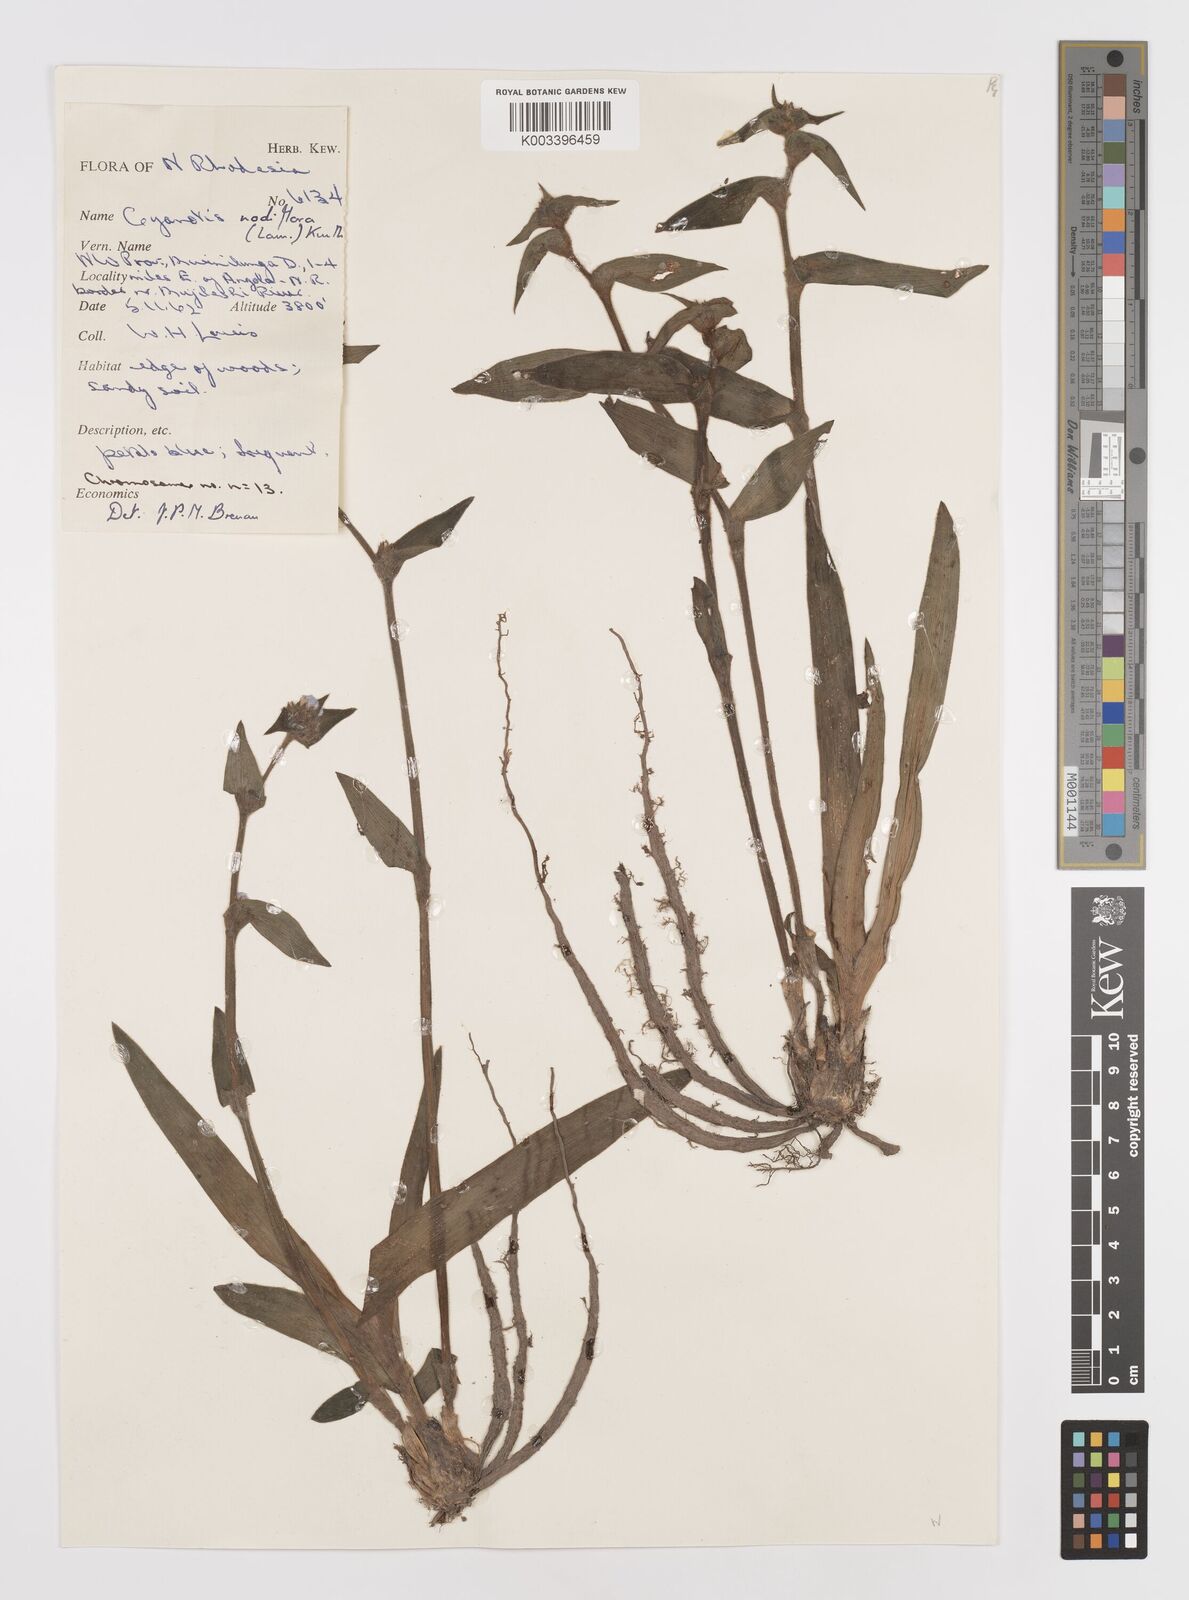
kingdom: Plantae
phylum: Tracheophyta
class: Liliopsida
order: Commelinales
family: Commelinaceae
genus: Cyanotis
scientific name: Cyanotis speciosa
